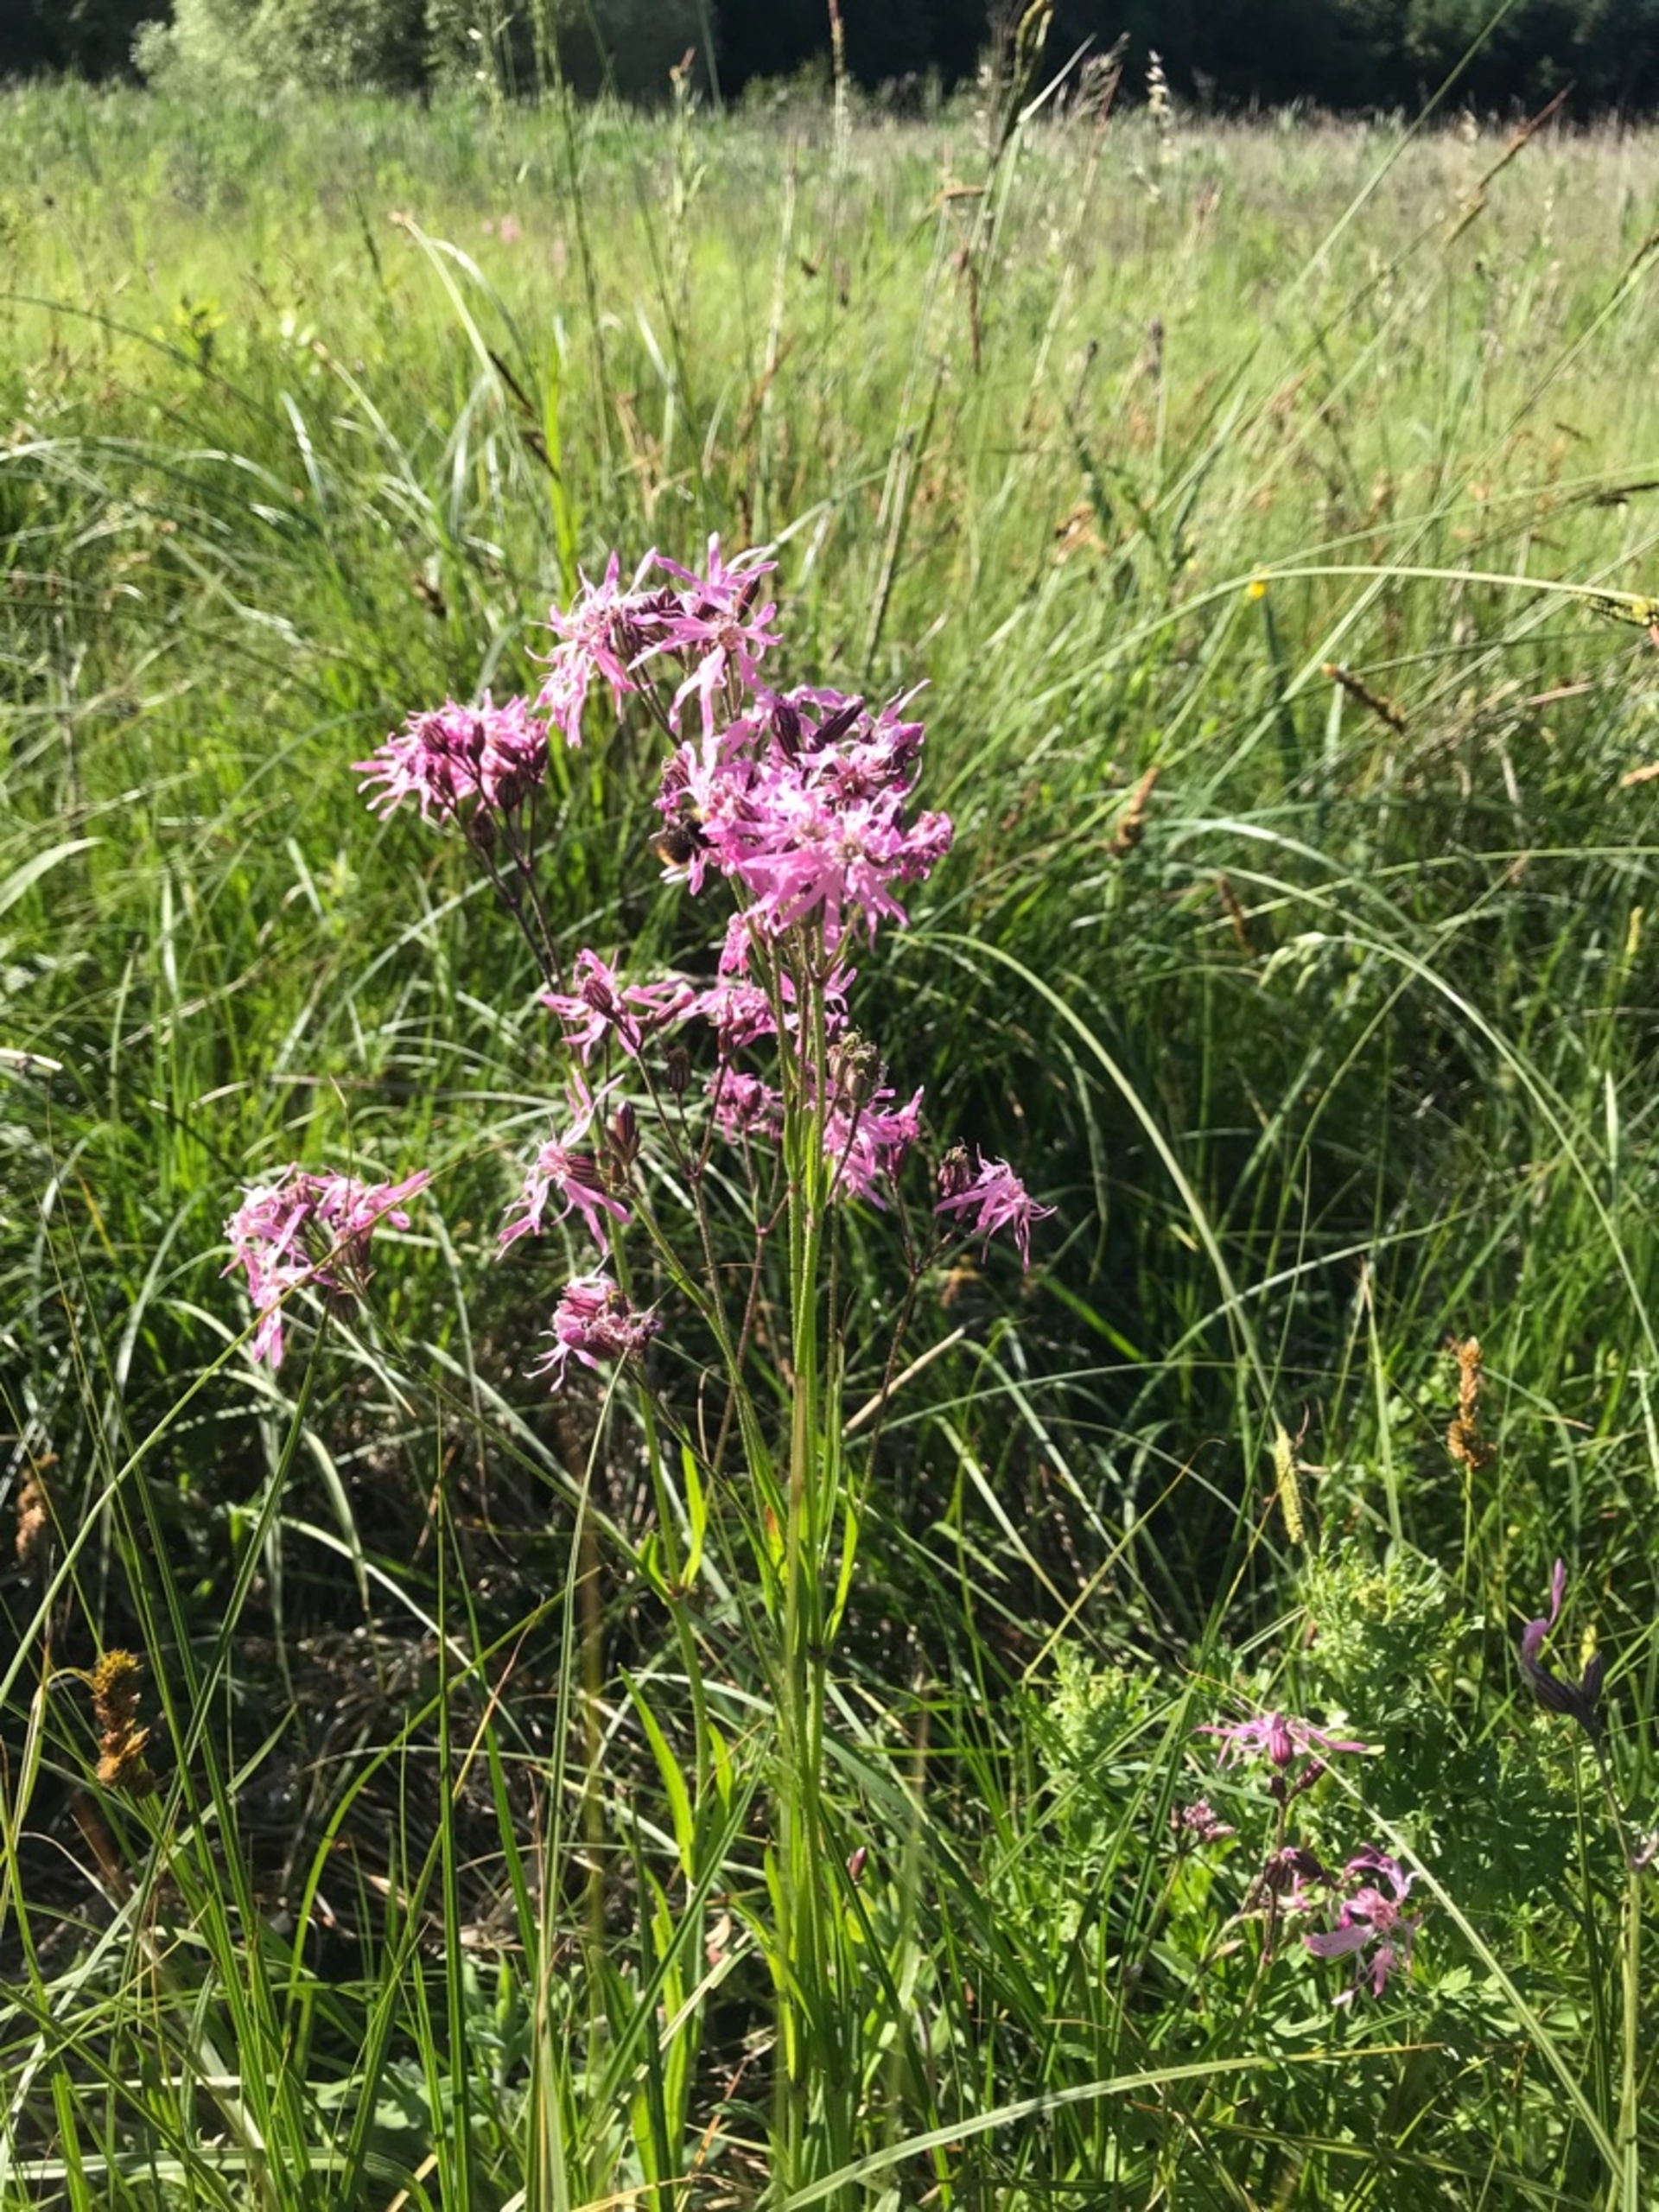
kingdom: Plantae
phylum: Tracheophyta
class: Magnoliopsida
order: Caryophyllales
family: Caryophyllaceae
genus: Silene
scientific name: Silene flos-cuculi
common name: Trævlekrone
